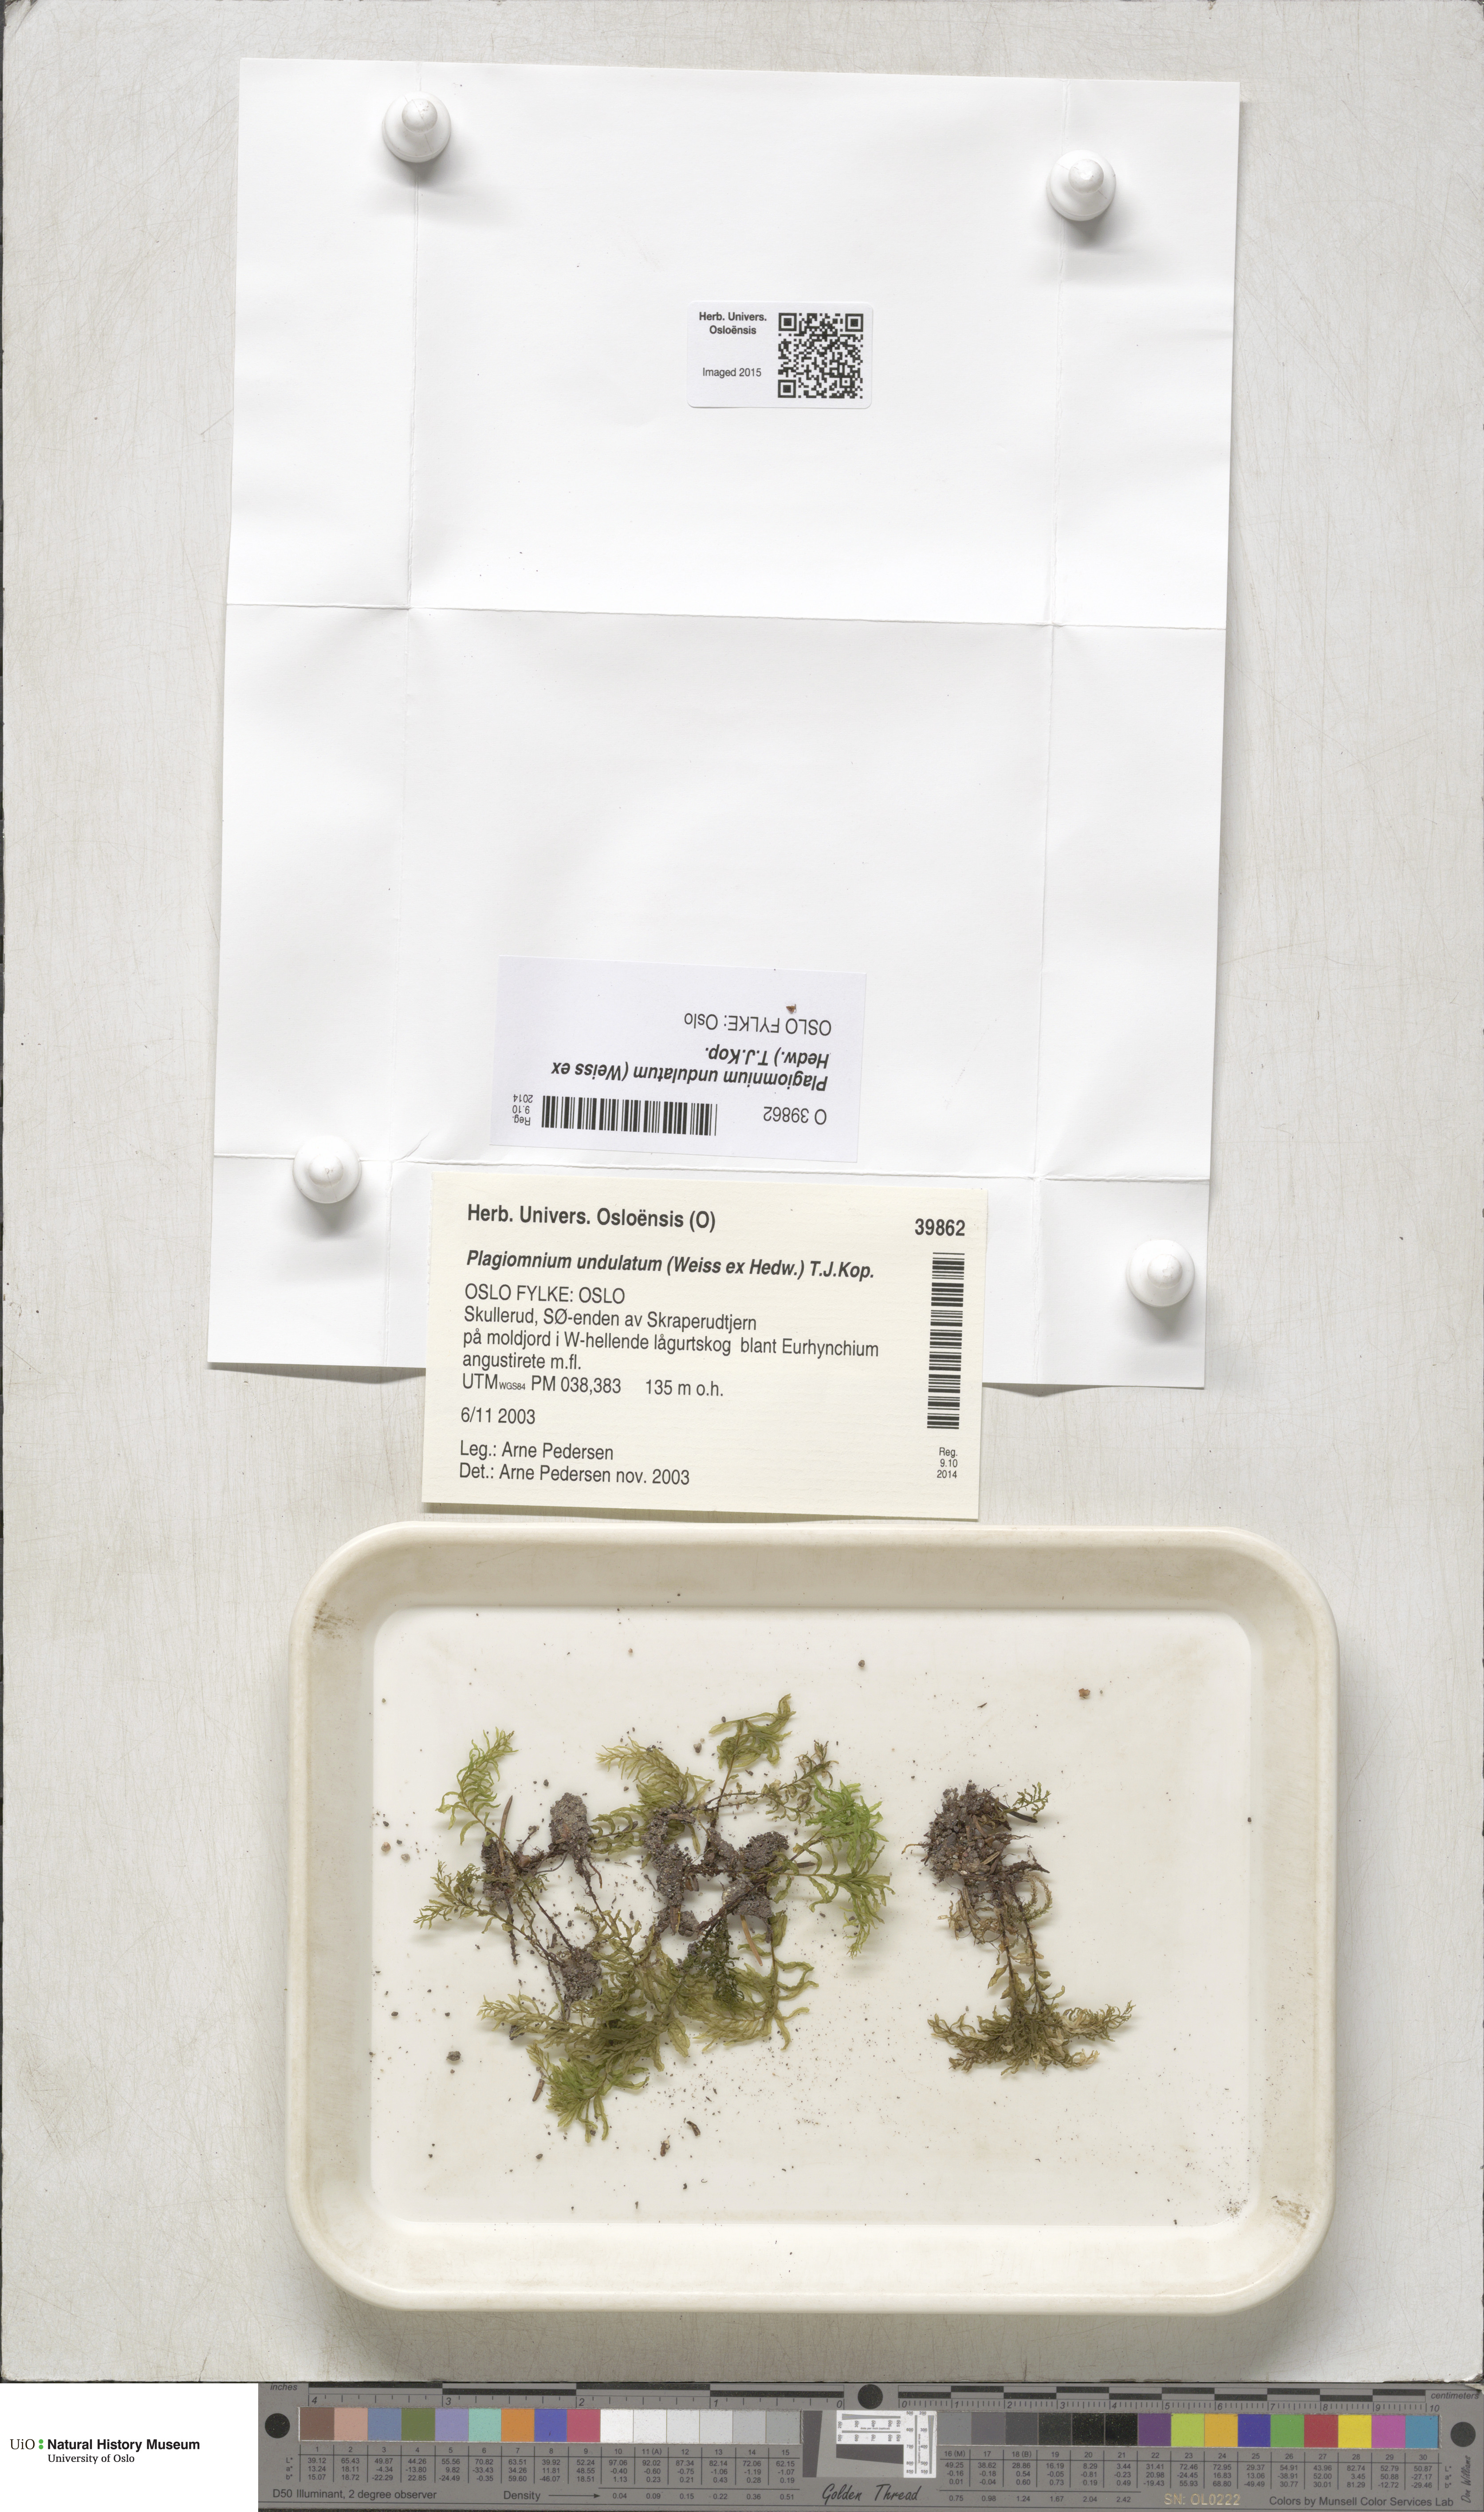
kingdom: Plantae
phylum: Bryophyta
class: Bryopsida
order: Bryales
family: Mniaceae
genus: Plagiomnium
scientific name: Plagiomnium undulatum
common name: Hart's-tongue thyme-moss
